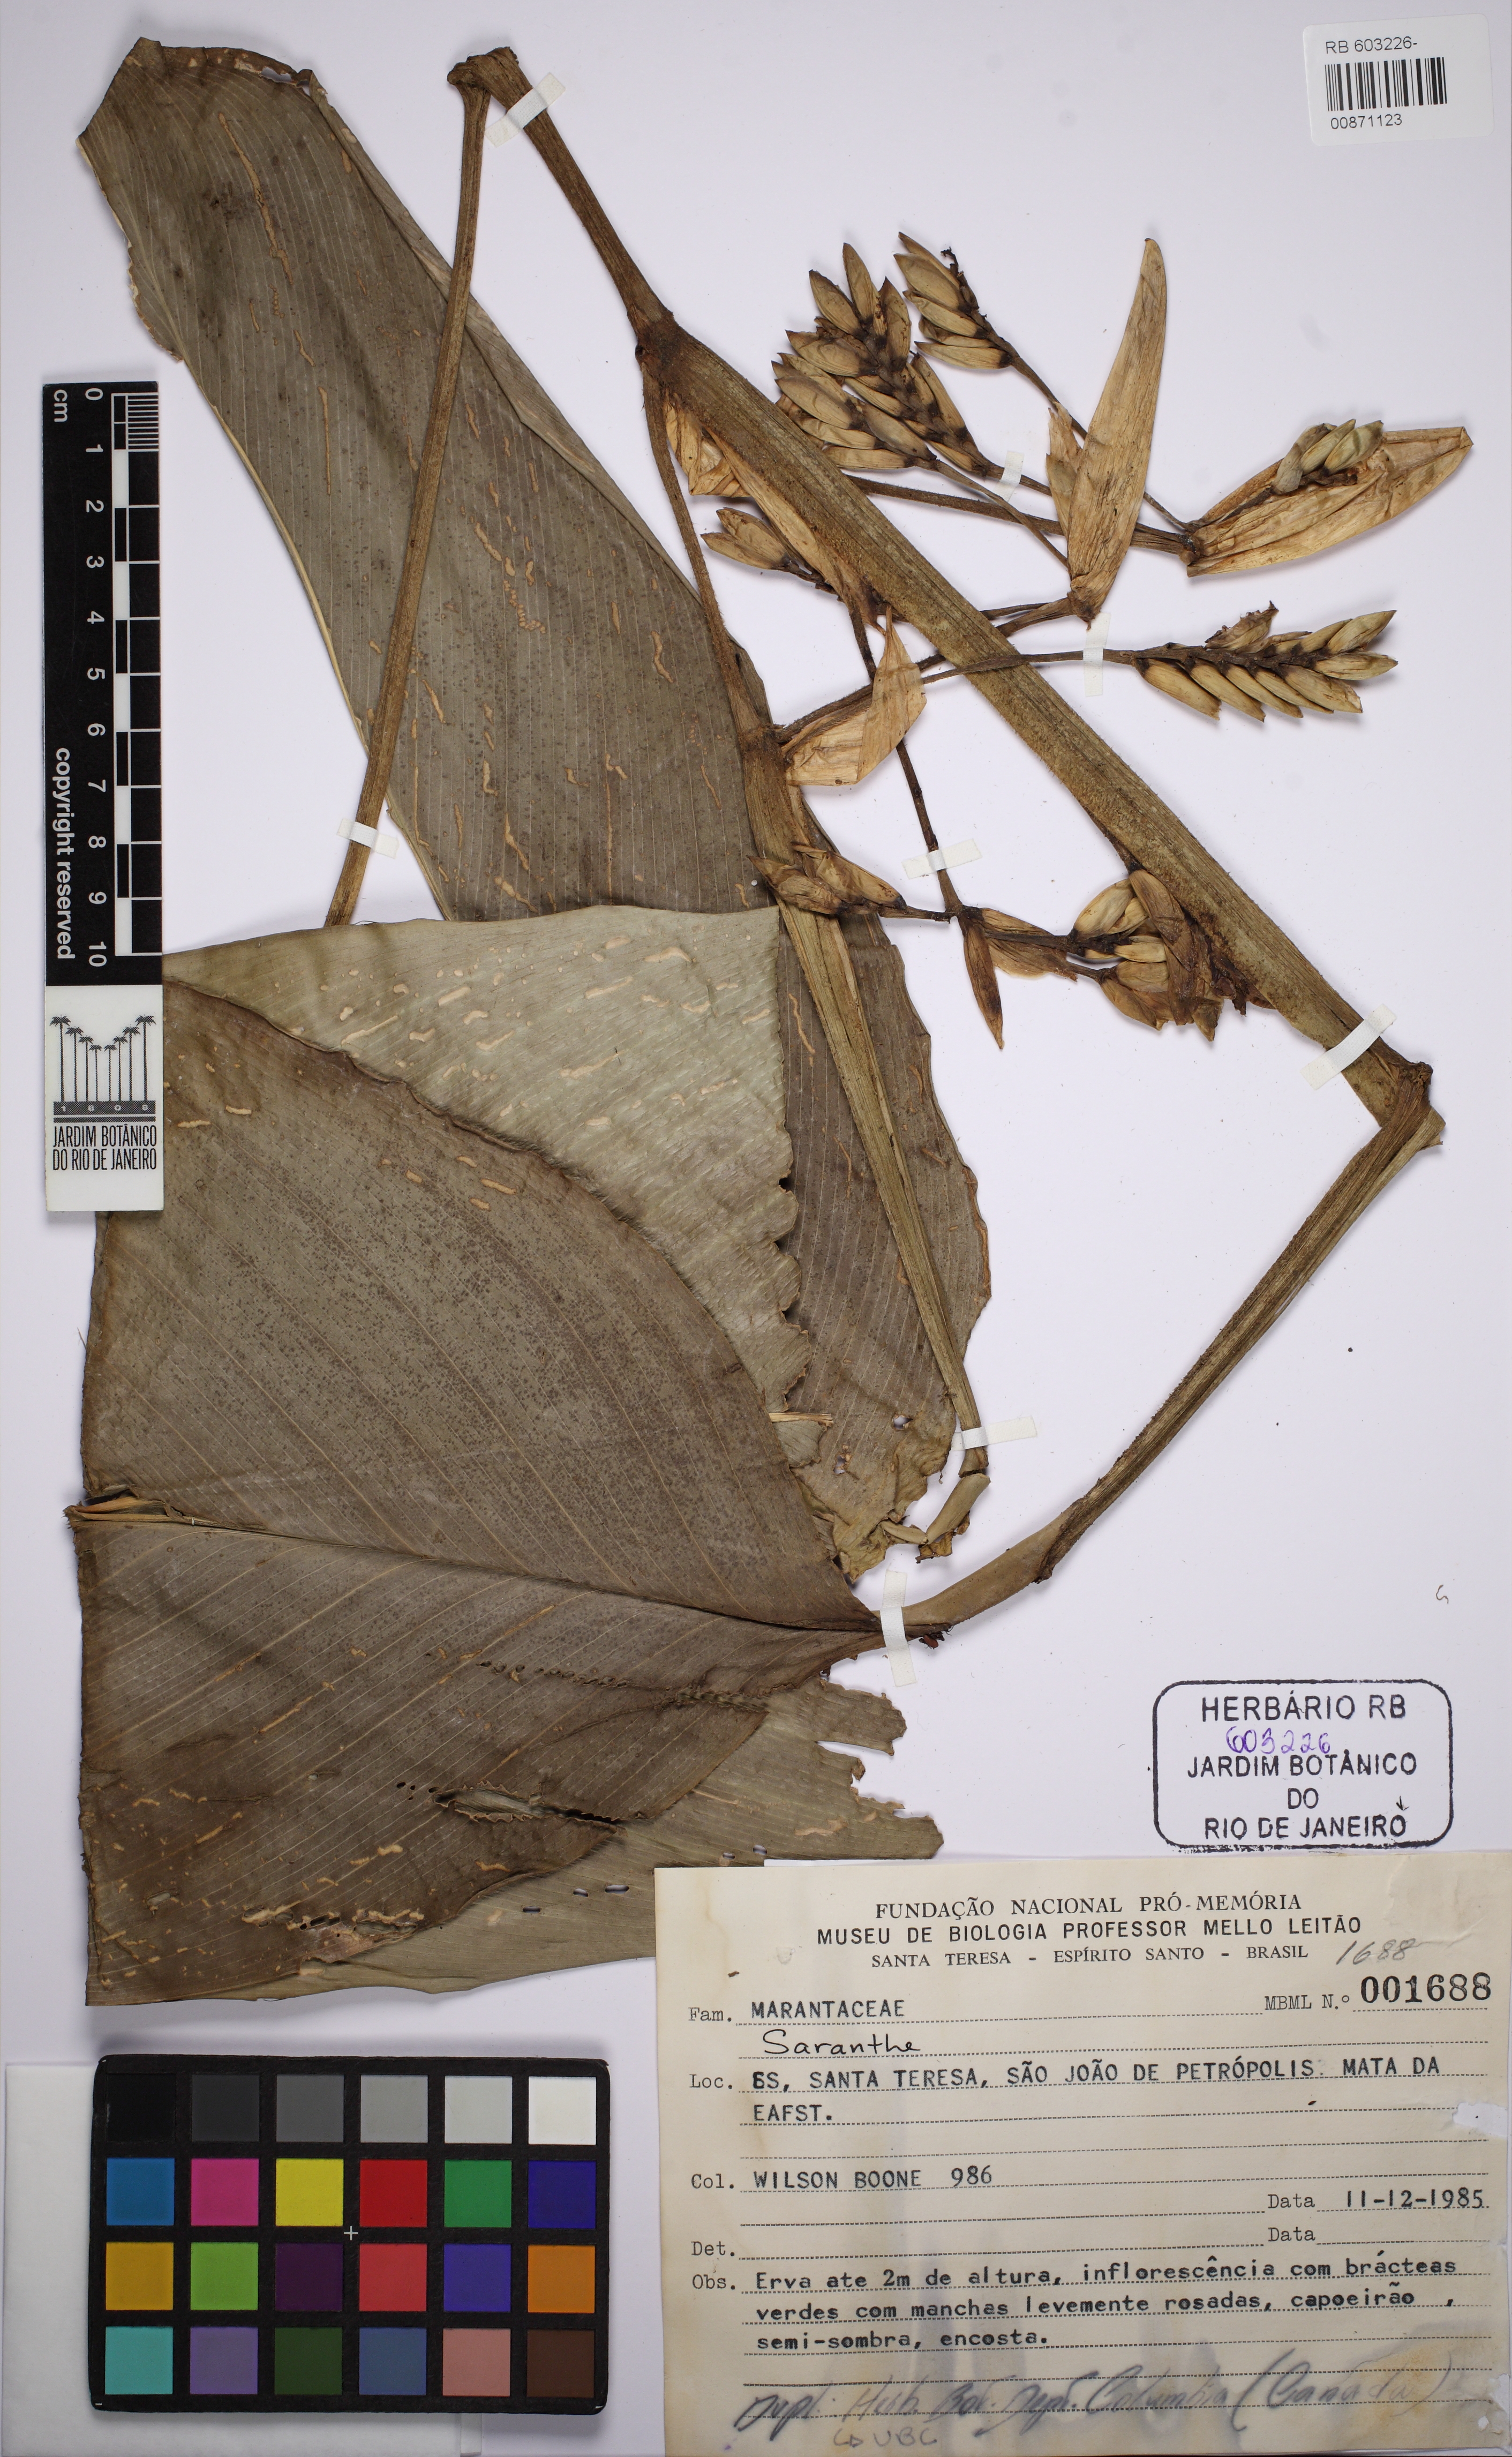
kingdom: Plantae
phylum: Tracheophyta
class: Liliopsida
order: Zingiberales
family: Marantaceae
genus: Ctenanthe
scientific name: Ctenanthe ericae
